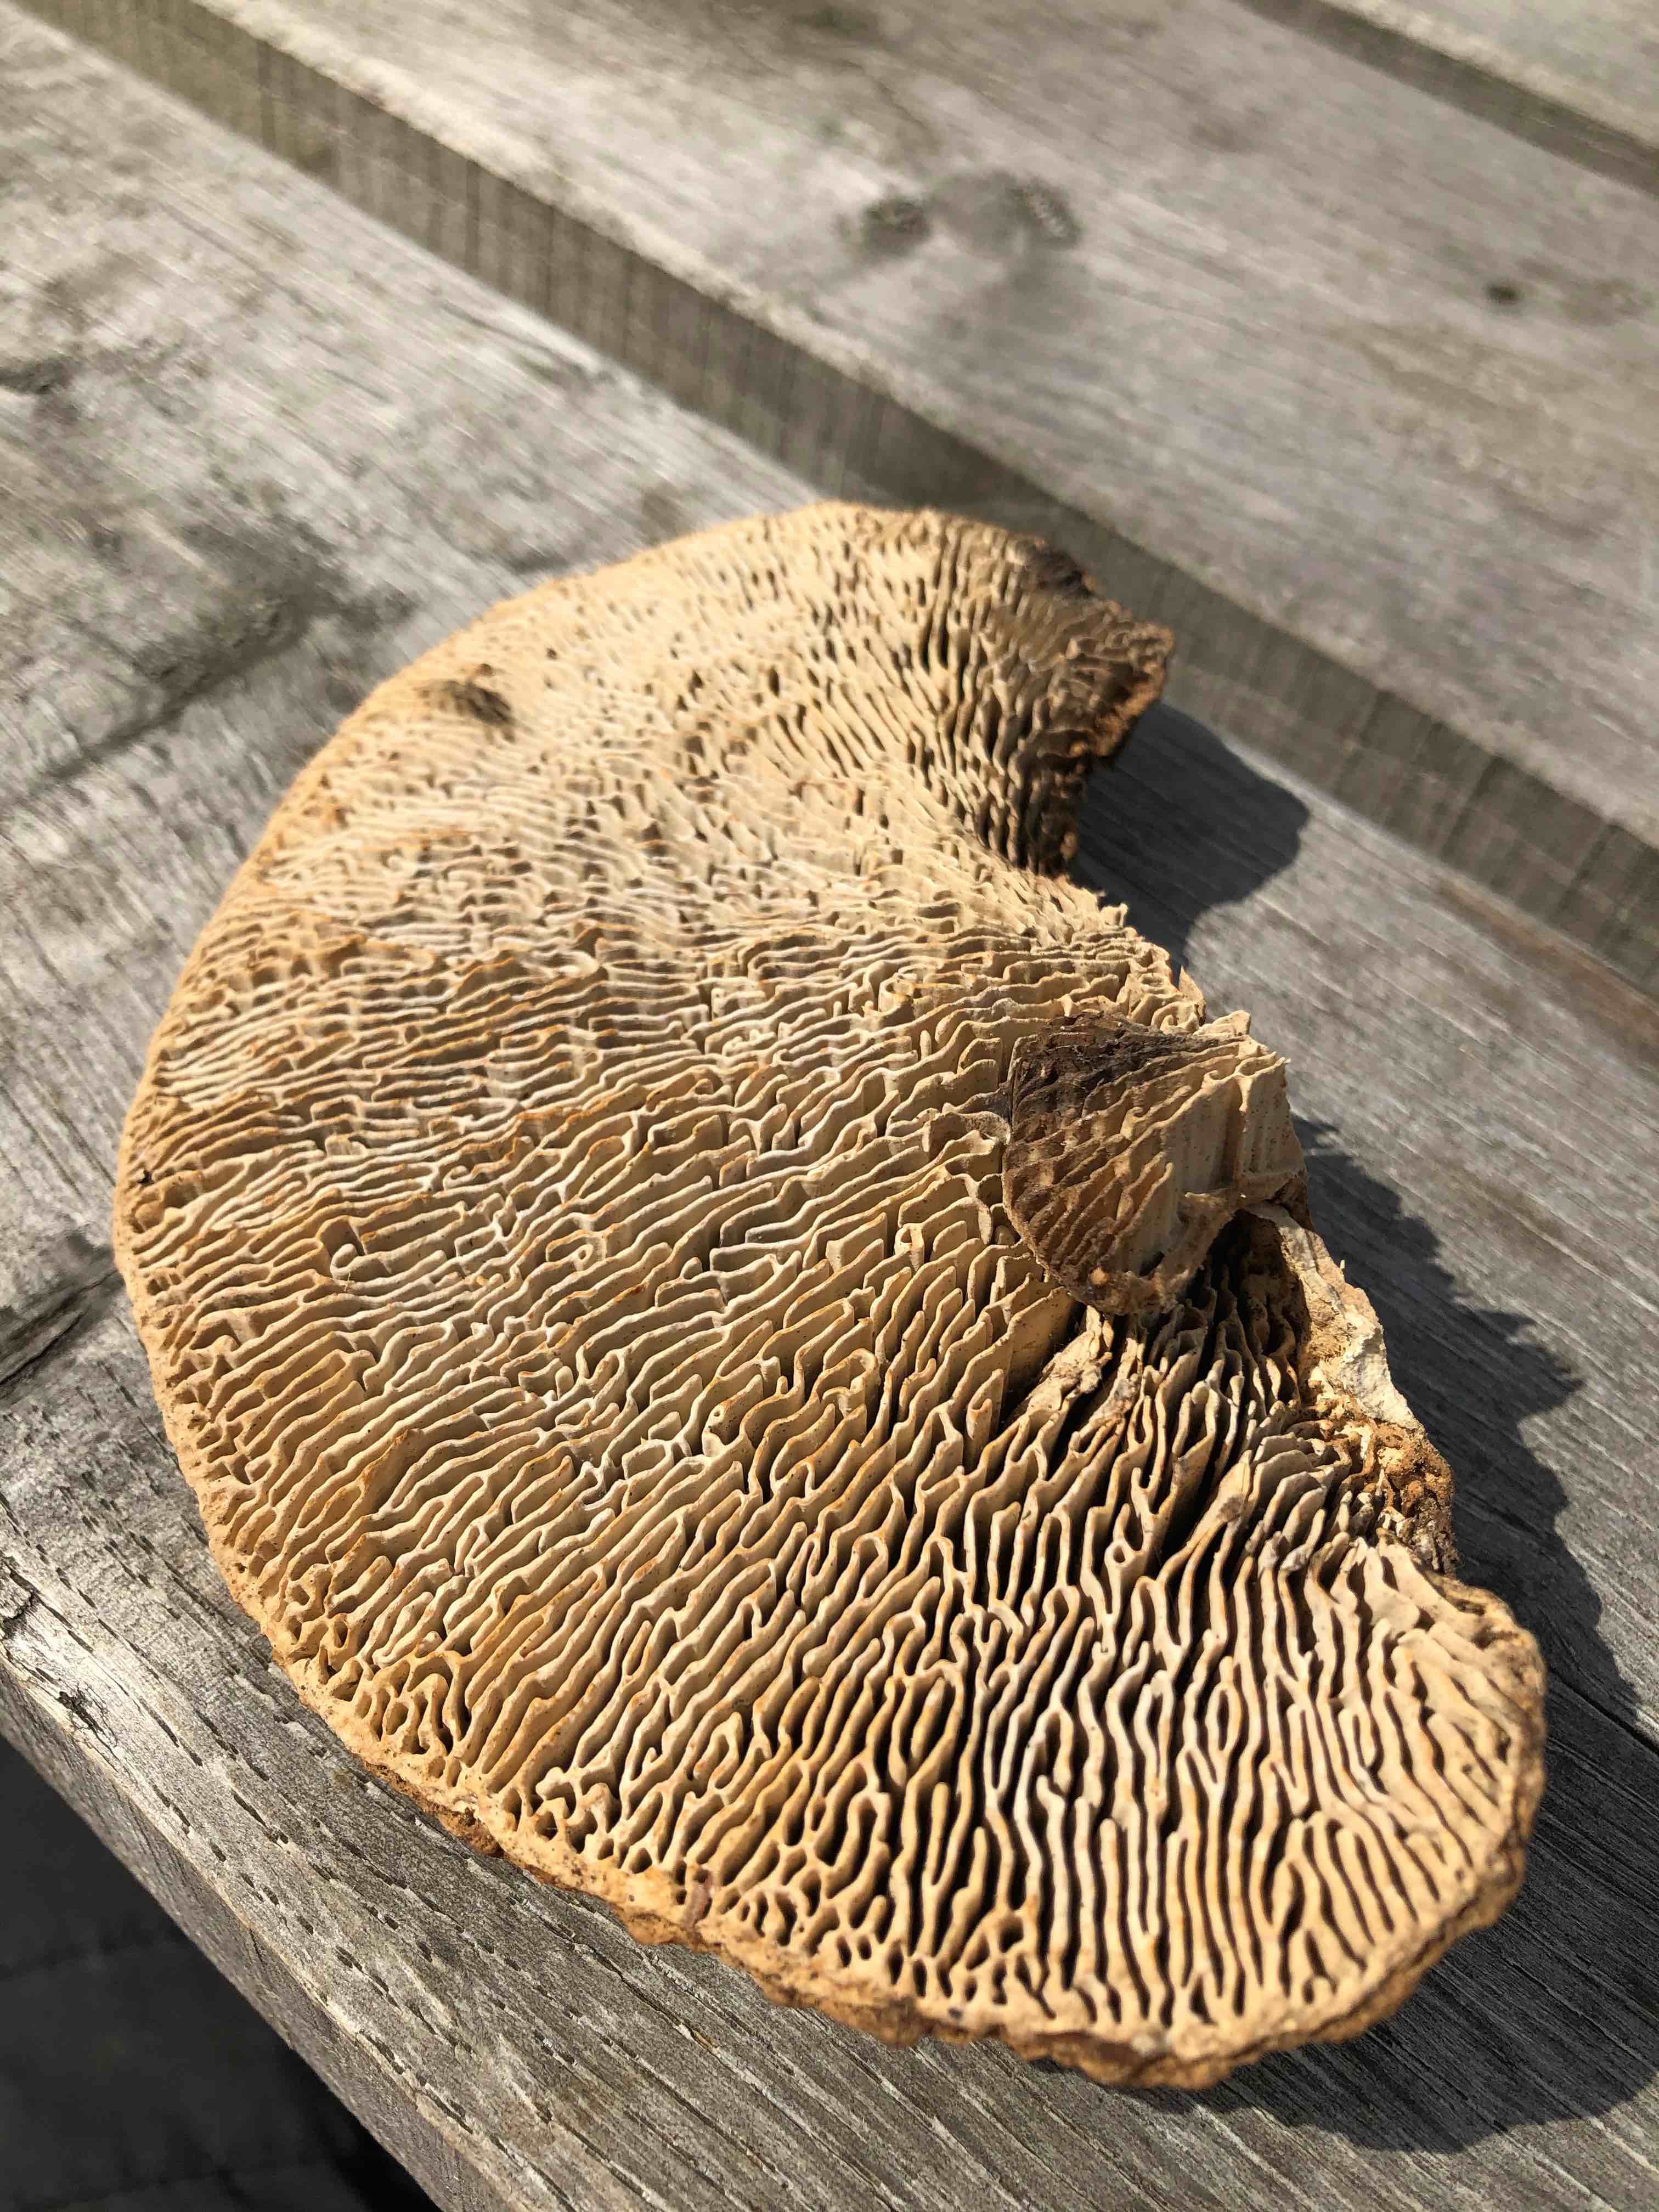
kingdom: Fungi
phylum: Basidiomycota
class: Agaricomycetes
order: Polyporales
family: Fomitopsidaceae
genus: Daedalea
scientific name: Daedalea quercina
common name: ege-labyrintsvamp
